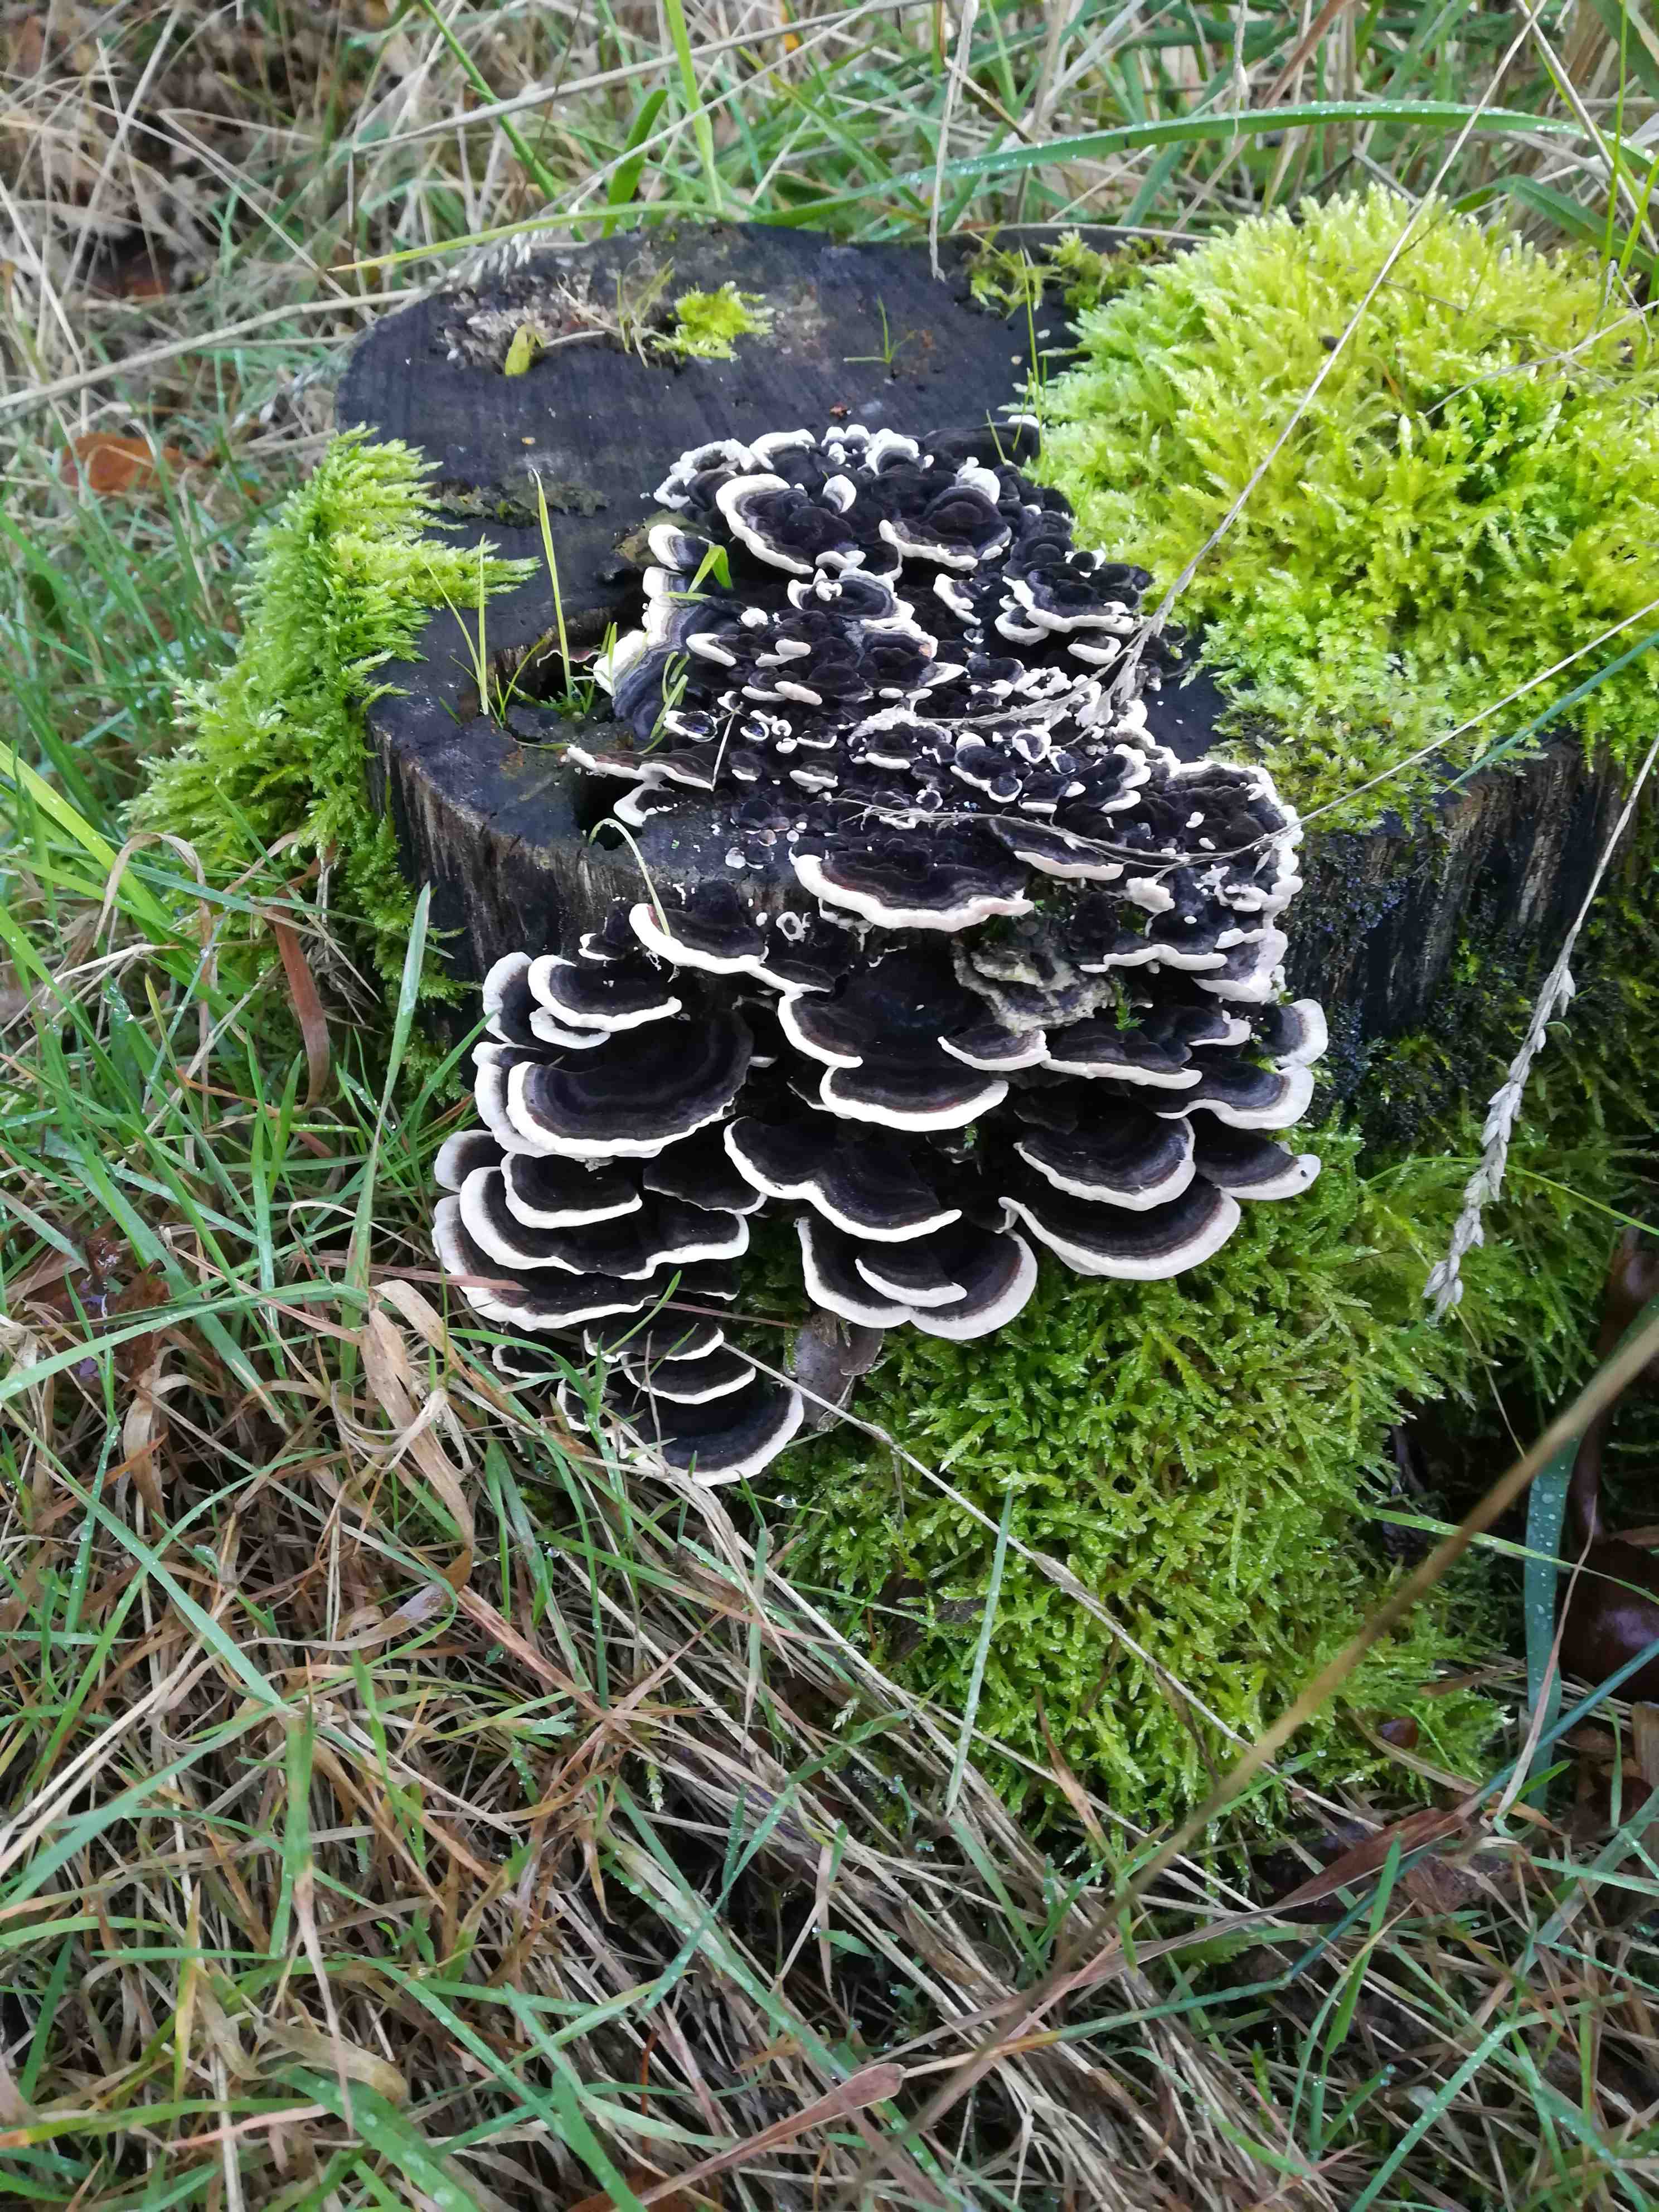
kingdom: Fungi
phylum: Basidiomycota
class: Agaricomycetes
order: Polyporales
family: Polyporaceae
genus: Trametes
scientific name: Trametes versicolor
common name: broget læderporesvamp
